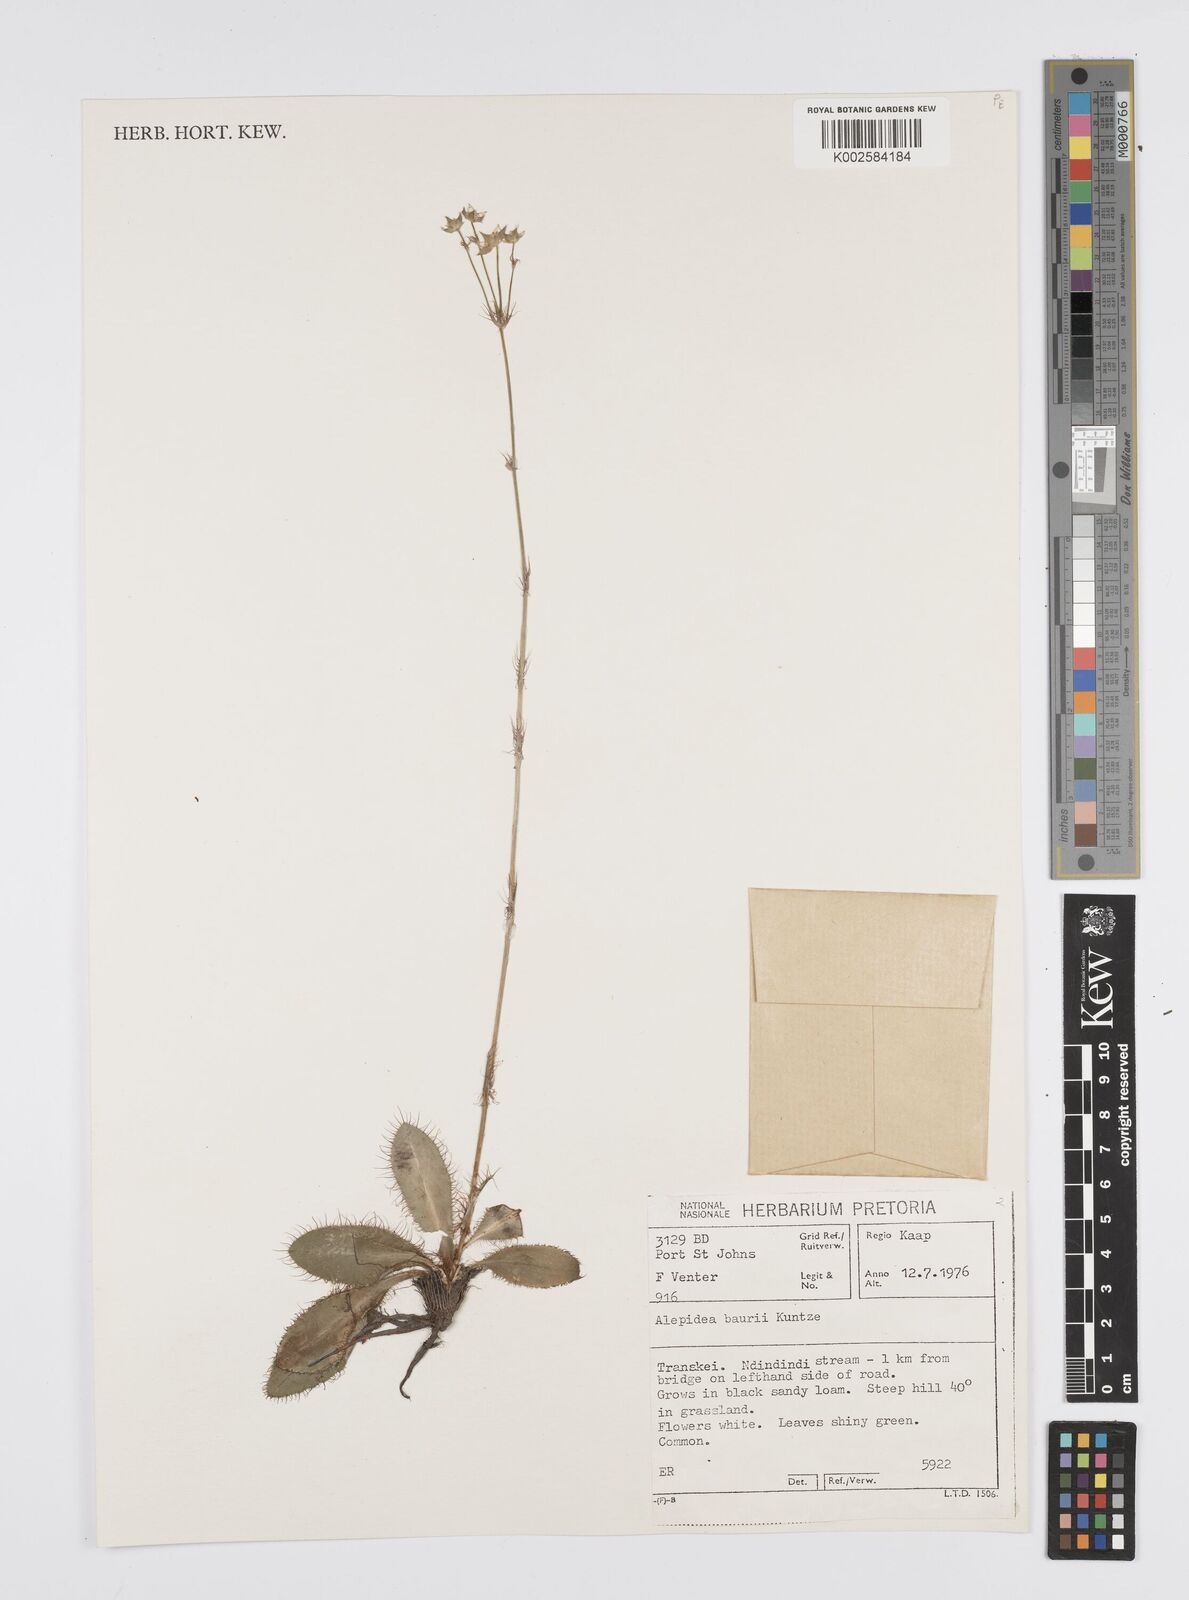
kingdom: Plantae
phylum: Tracheophyta
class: Magnoliopsida
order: Apiales
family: Apiaceae
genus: Alepidea
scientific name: Alepidea natalensis
